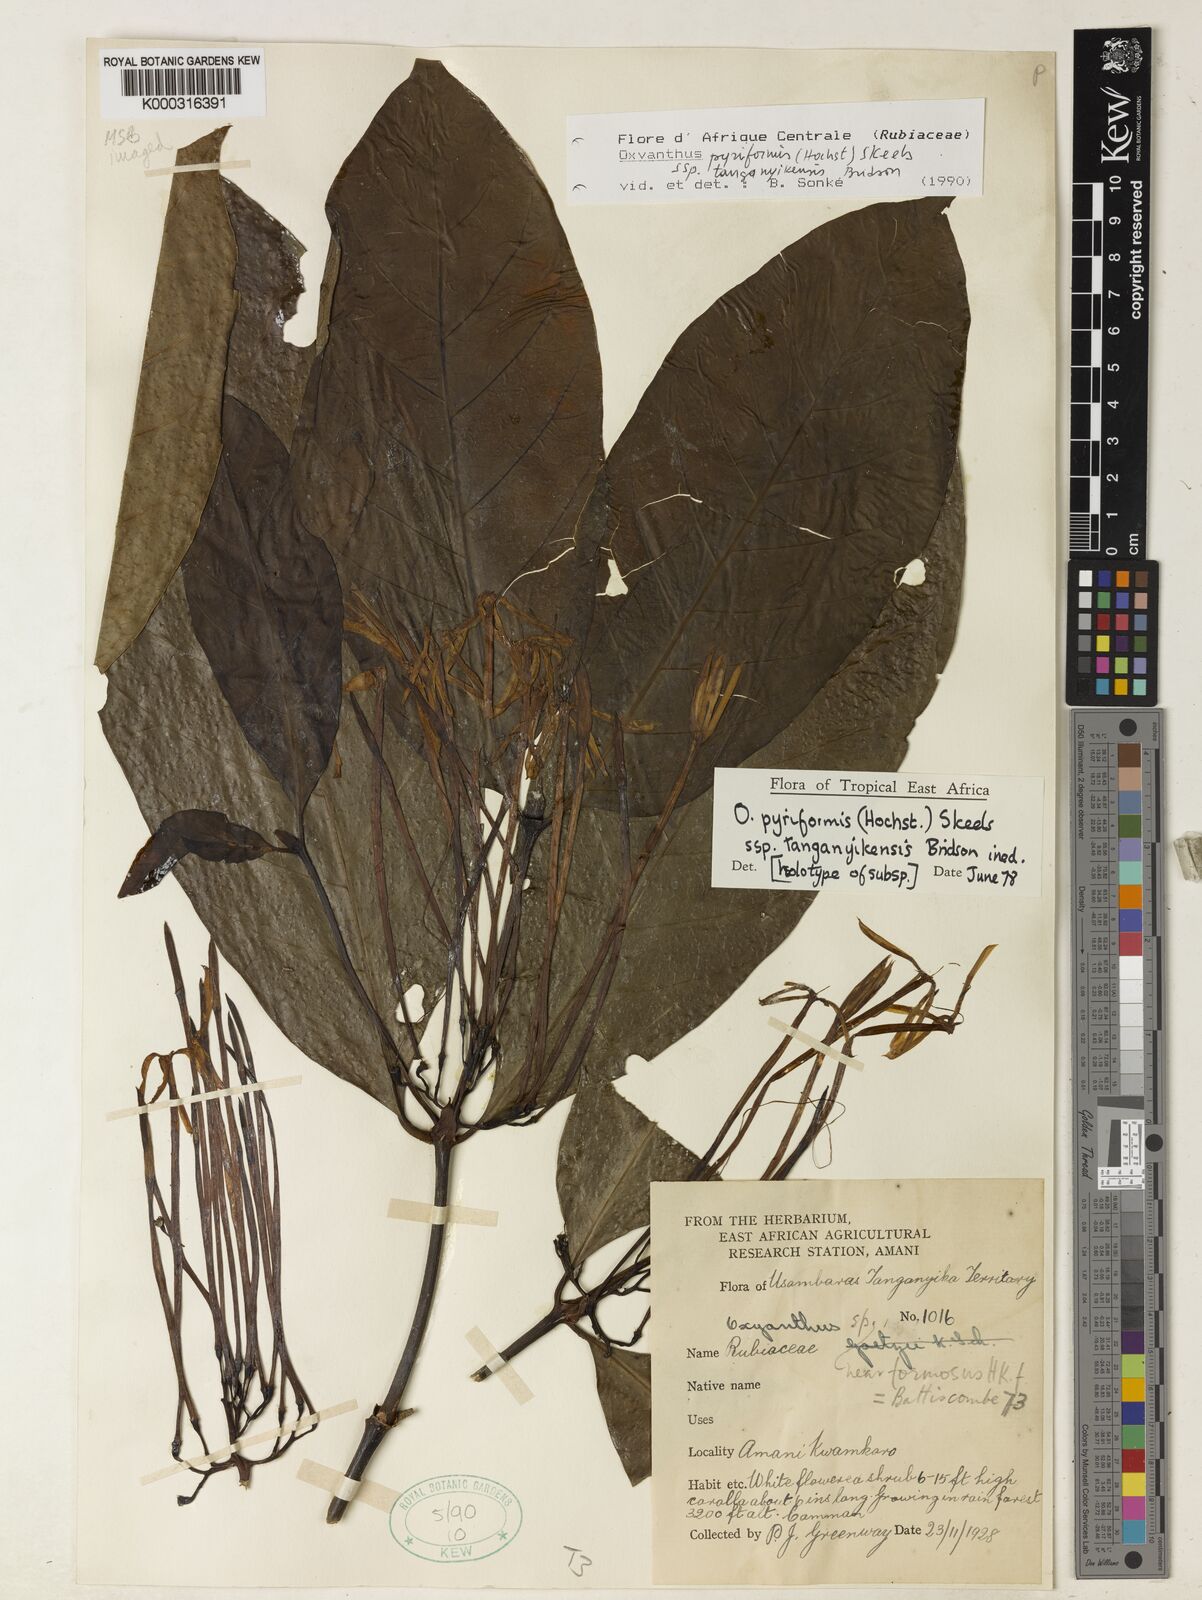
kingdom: Plantae
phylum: Tracheophyta
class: Magnoliopsida
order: Gentianales
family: Rubiaceae
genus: Oxyanthus
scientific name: Oxyanthus pyriformis
